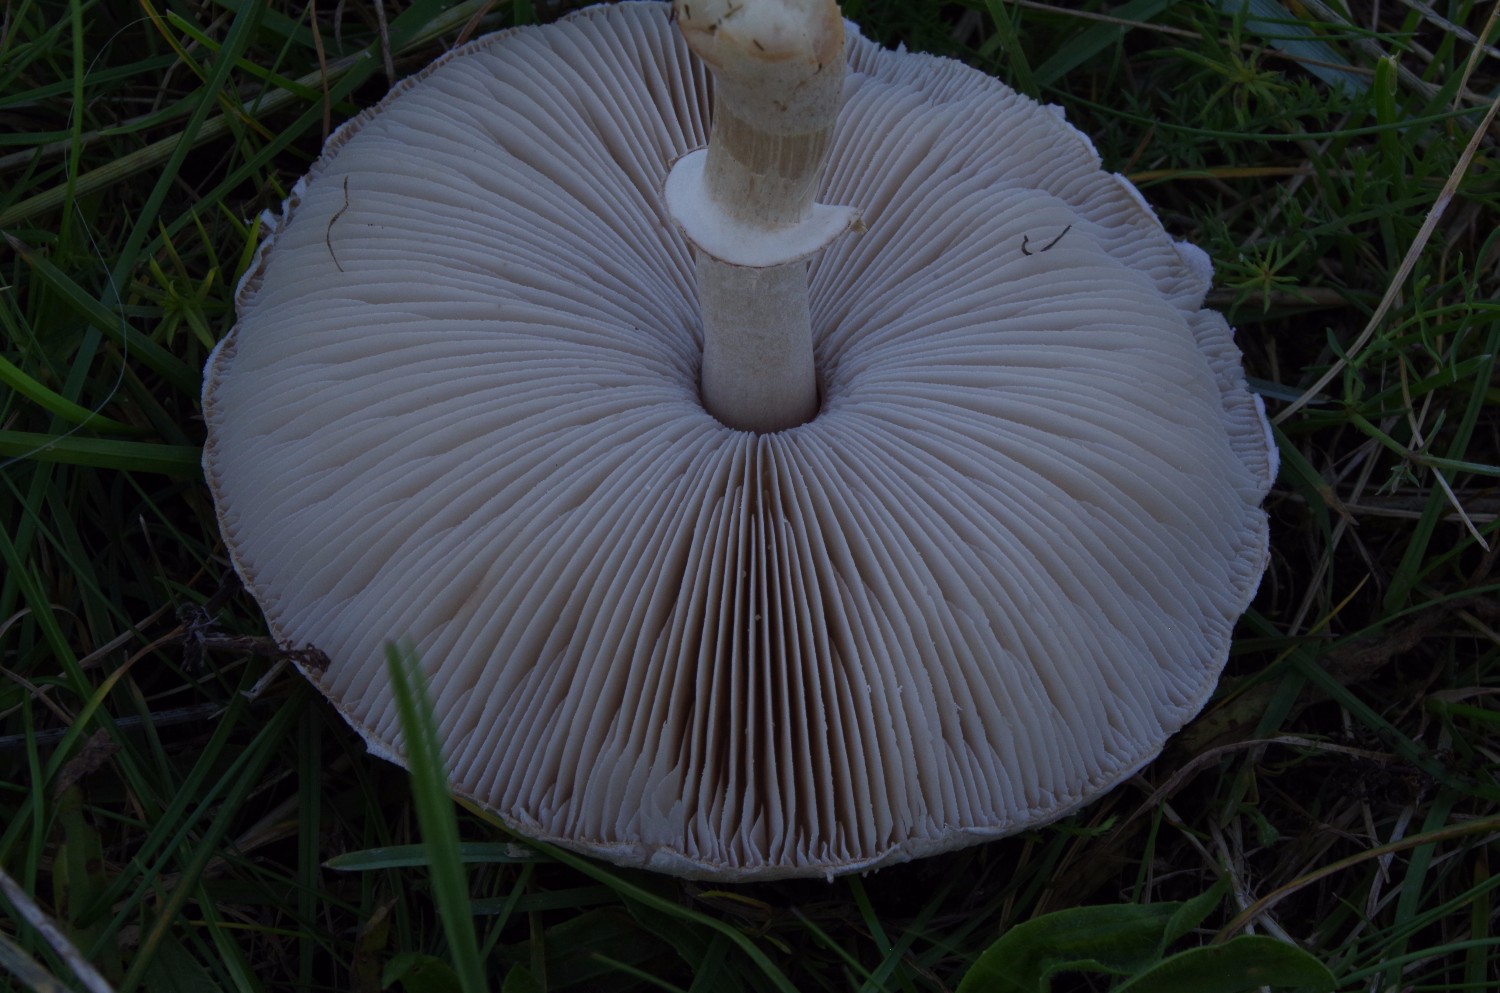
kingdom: Fungi
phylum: Basidiomycota
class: Agaricomycetes
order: Agaricales
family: Agaricaceae
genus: Macrolepiota
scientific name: Macrolepiota excoriata
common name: mark-kæmpeparasolhat
